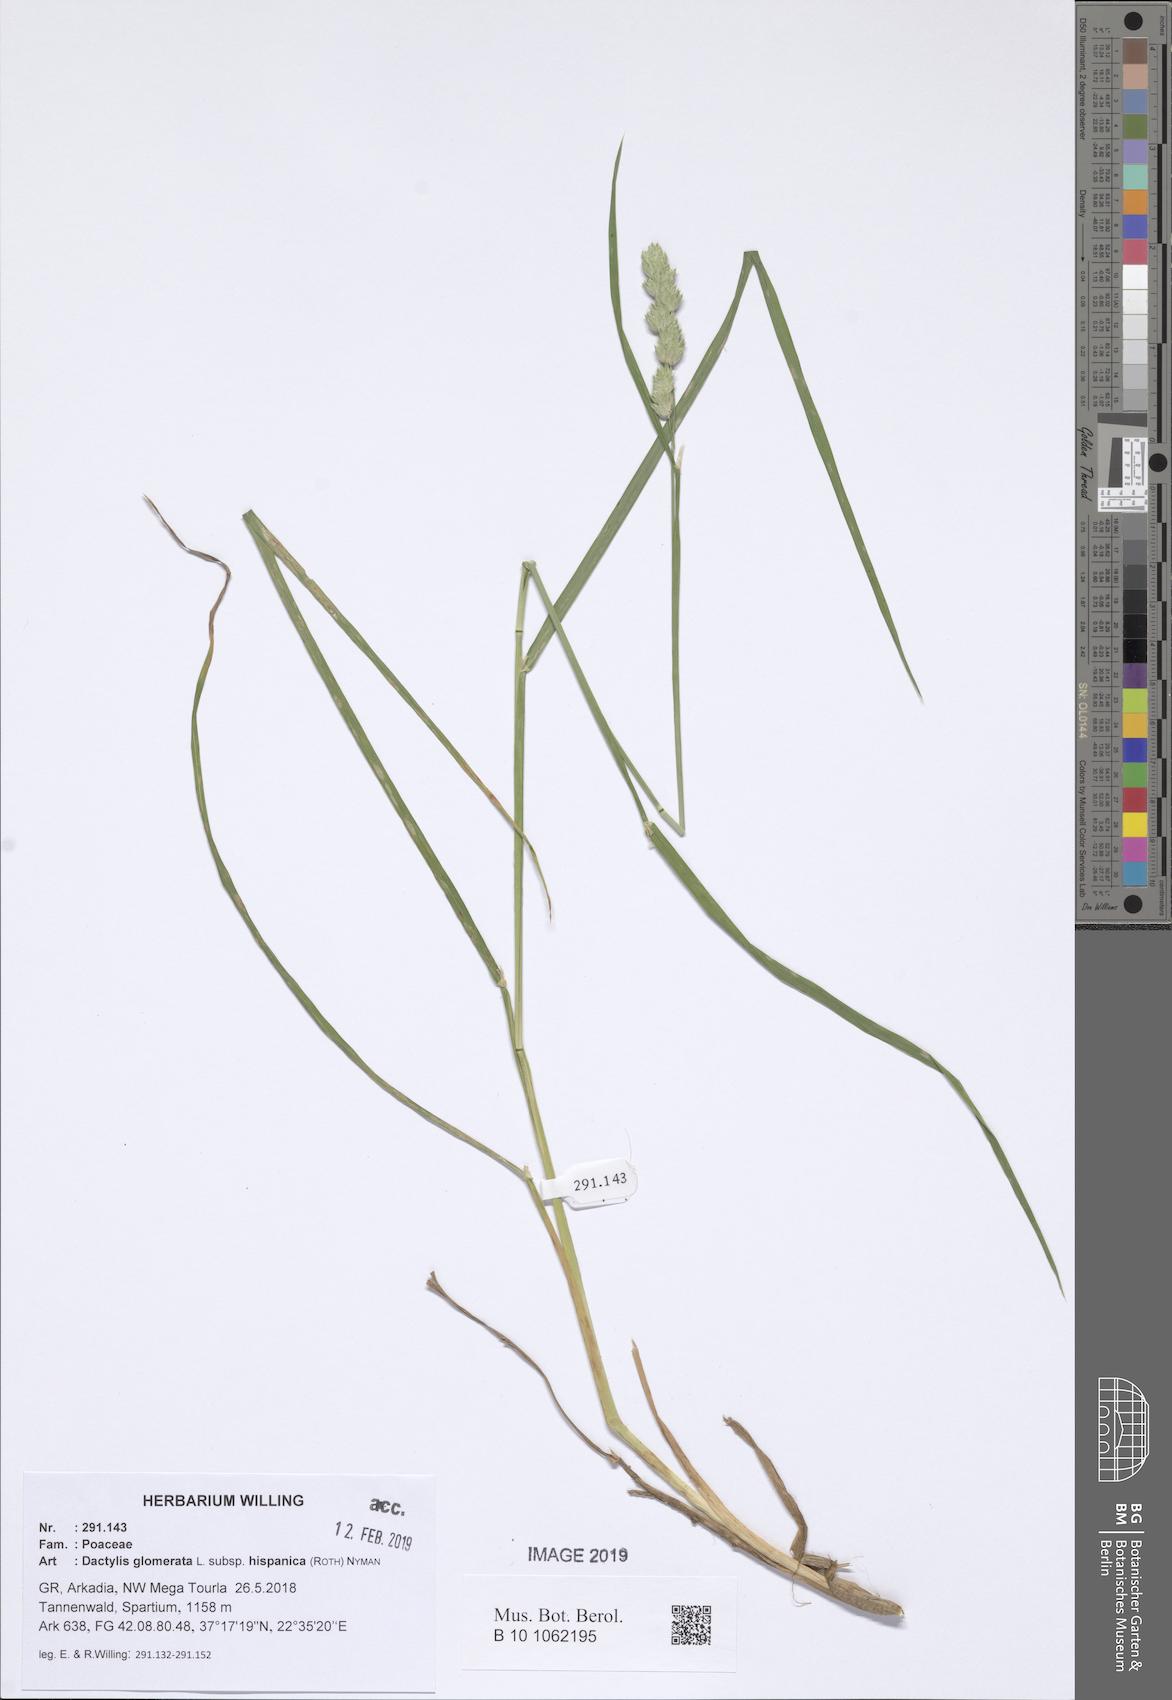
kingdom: Plantae
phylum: Tracheophyta
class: Liliopsida
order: Poales
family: Poaceae
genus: Dactylis
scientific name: Dactylis glomerata
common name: Orchardgrass
